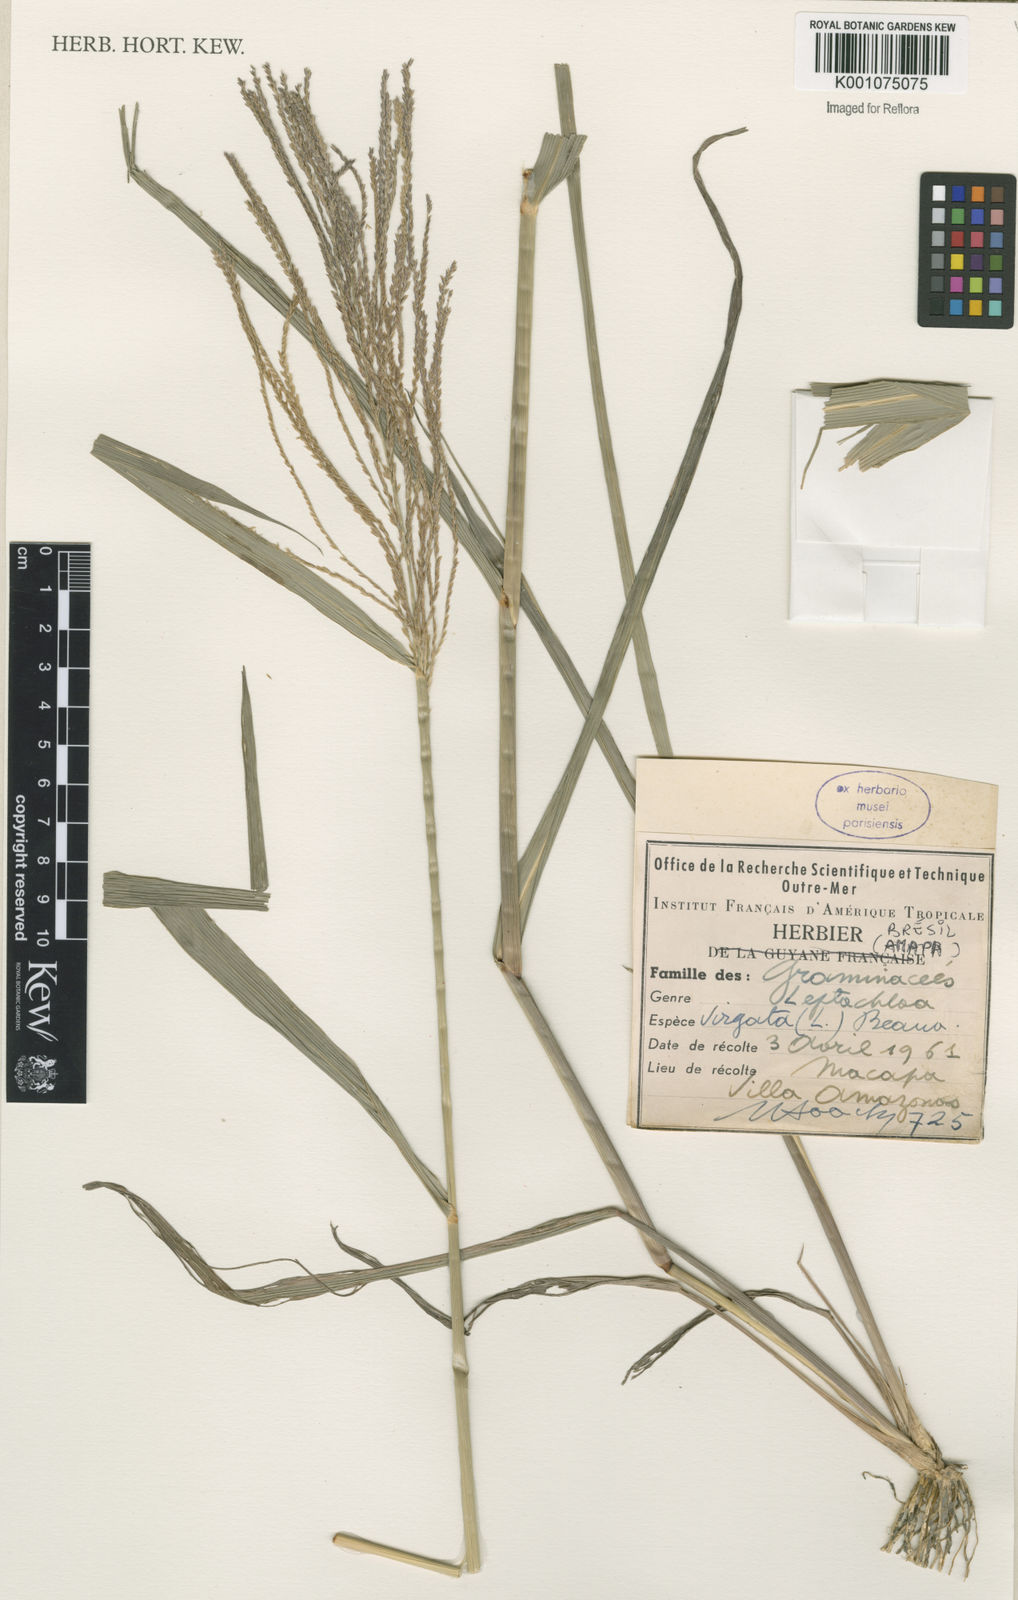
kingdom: Plantae
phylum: Tracheophyta
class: Liliopsida
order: Poales
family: Poaceae
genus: Leptochloa
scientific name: Leptochloa virgata
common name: Tropical sprangletop
